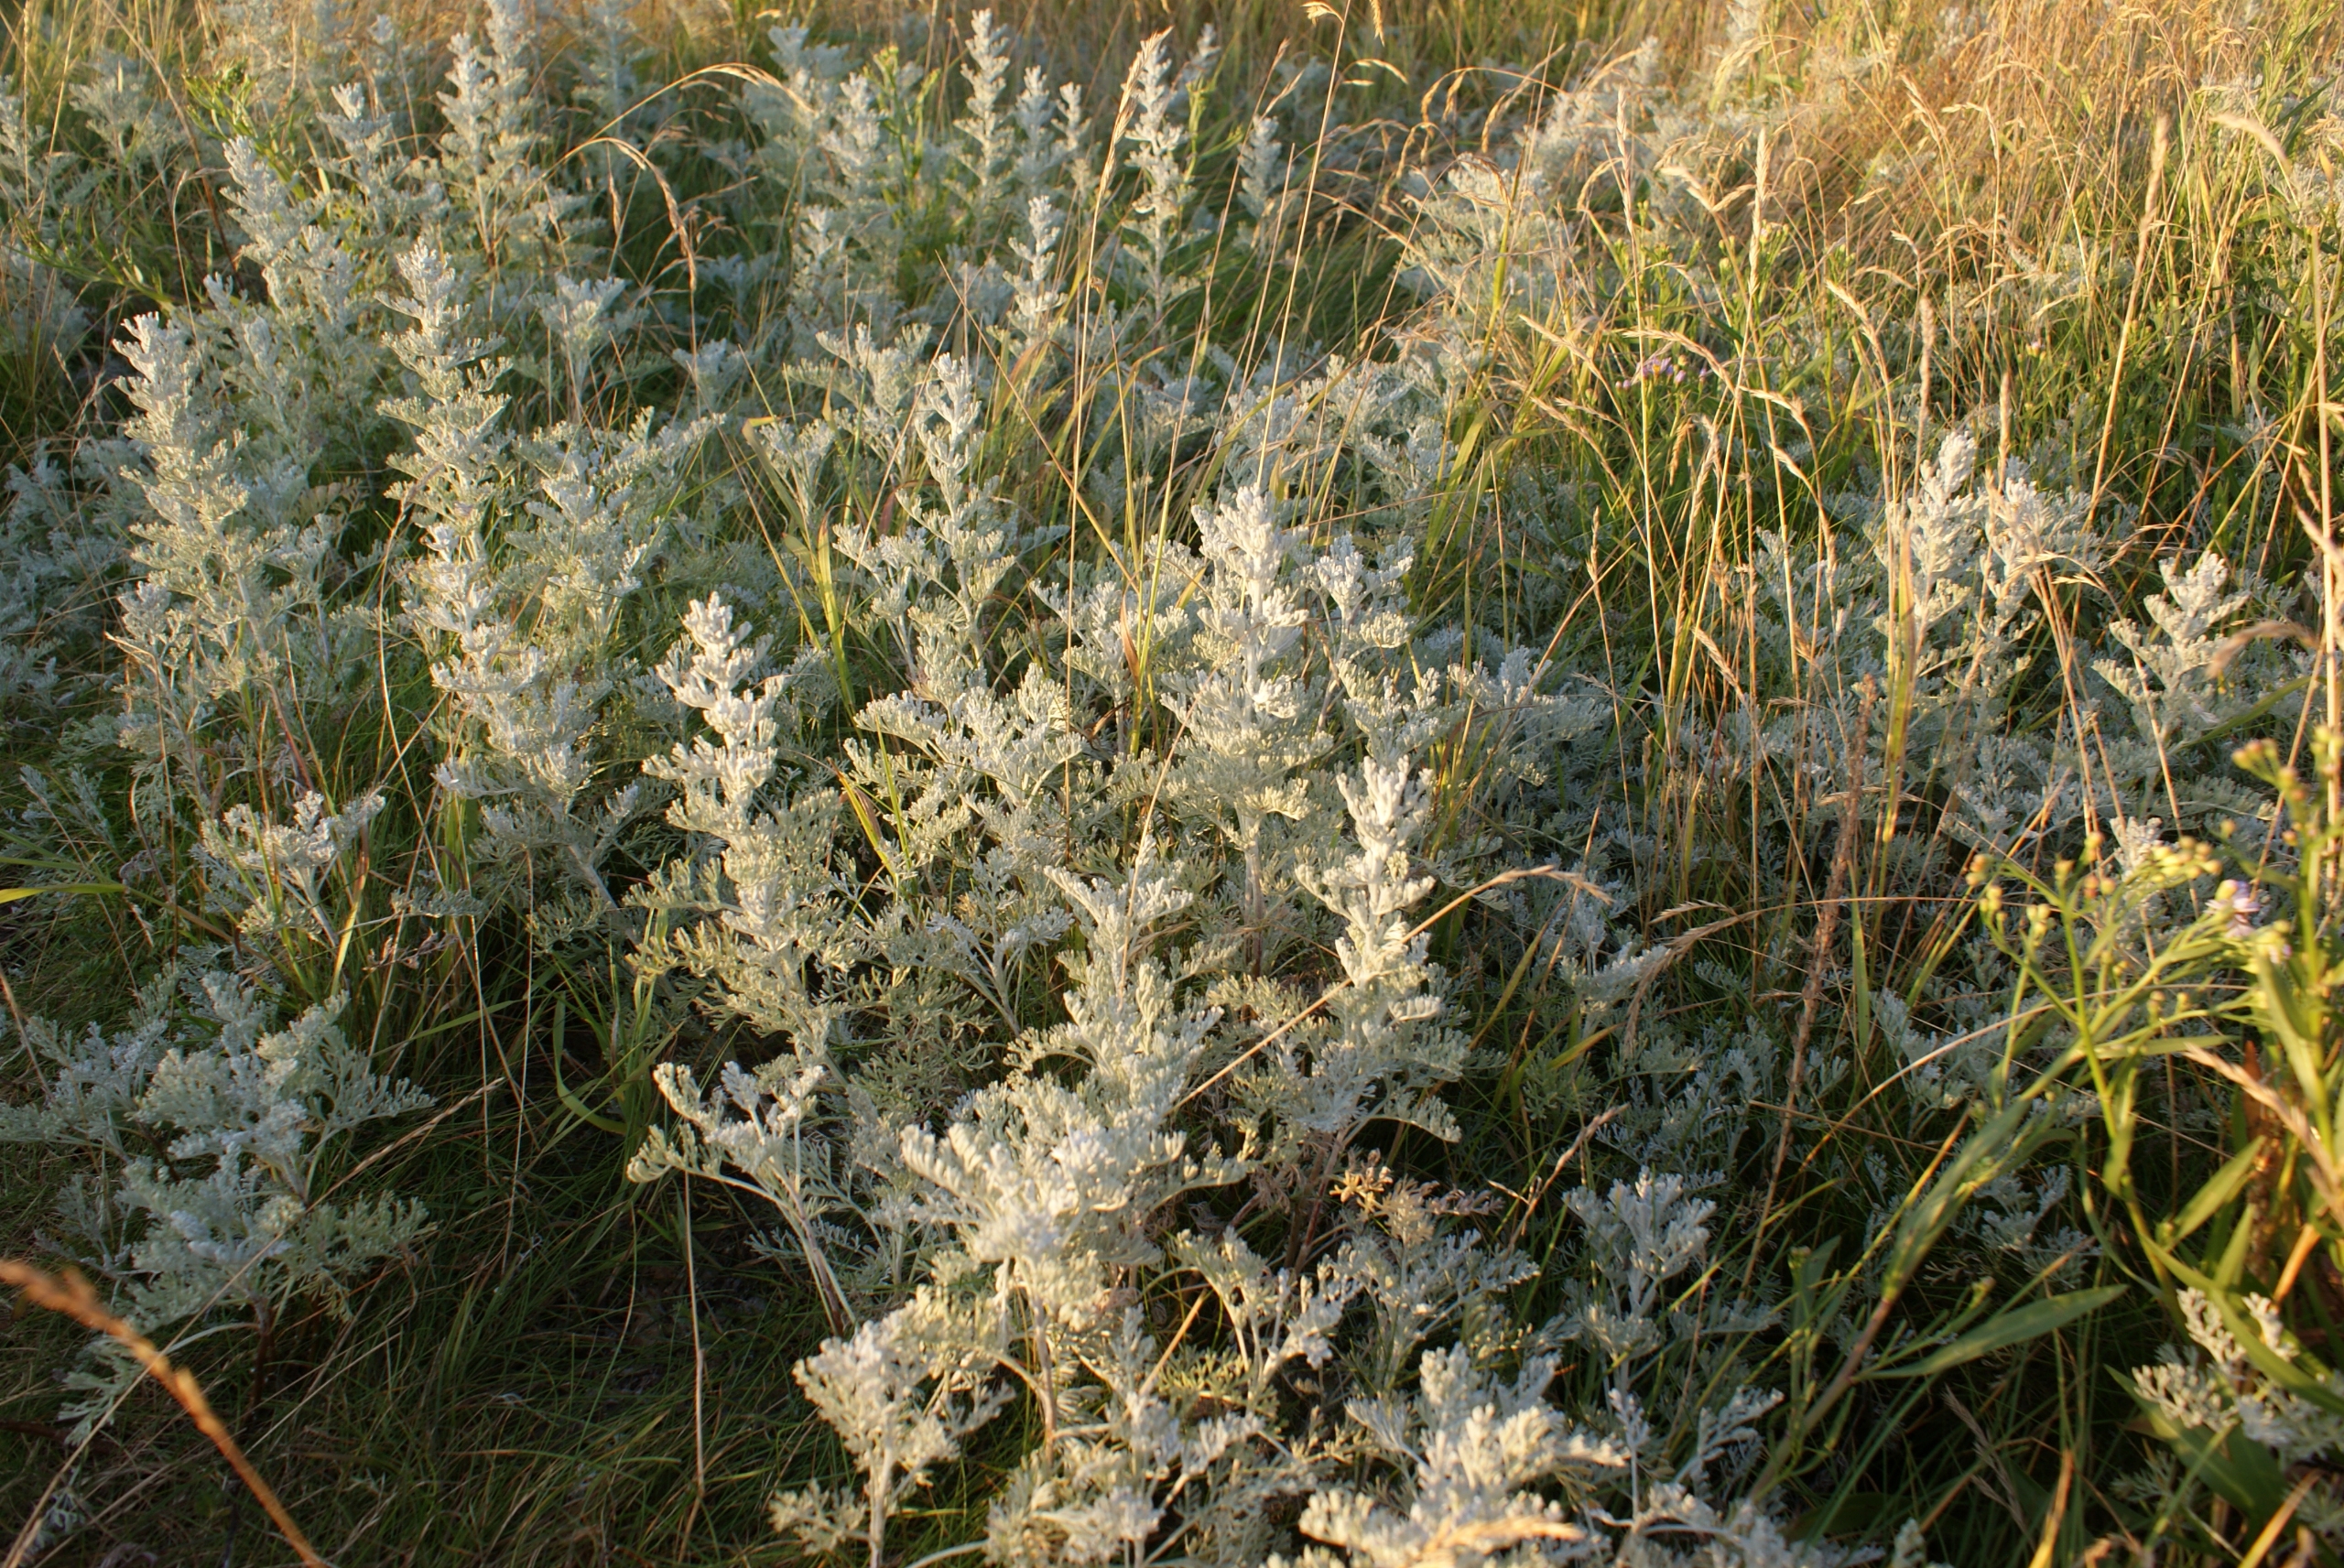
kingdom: Plantae
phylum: Tracheophyta
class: Magnoliopsida
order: Asterales
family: Asteraceae
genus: Artemisia
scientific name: Artemisia maritima
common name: Strandmalurt
